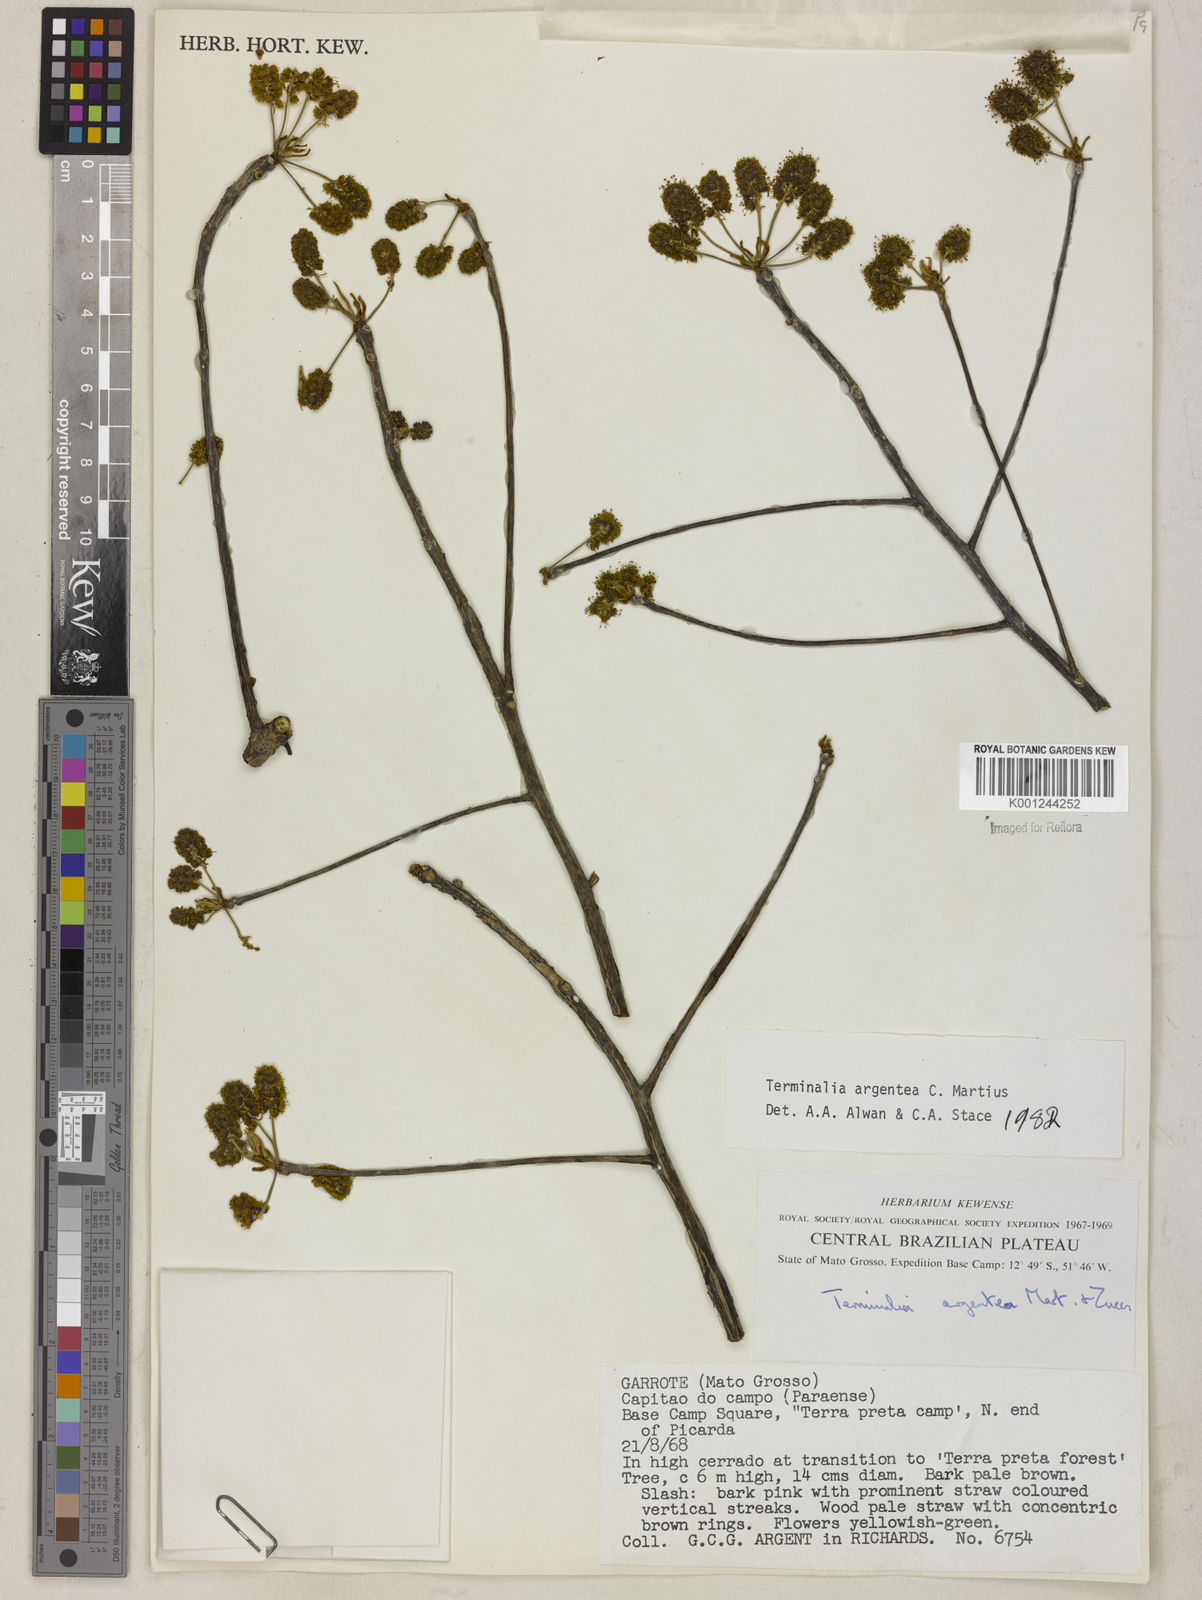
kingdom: Plantae
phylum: Tracheophyta
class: Magnoliopsida
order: Myrtales
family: Combretaceae
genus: Terminalia
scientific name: Terminalia argentea
